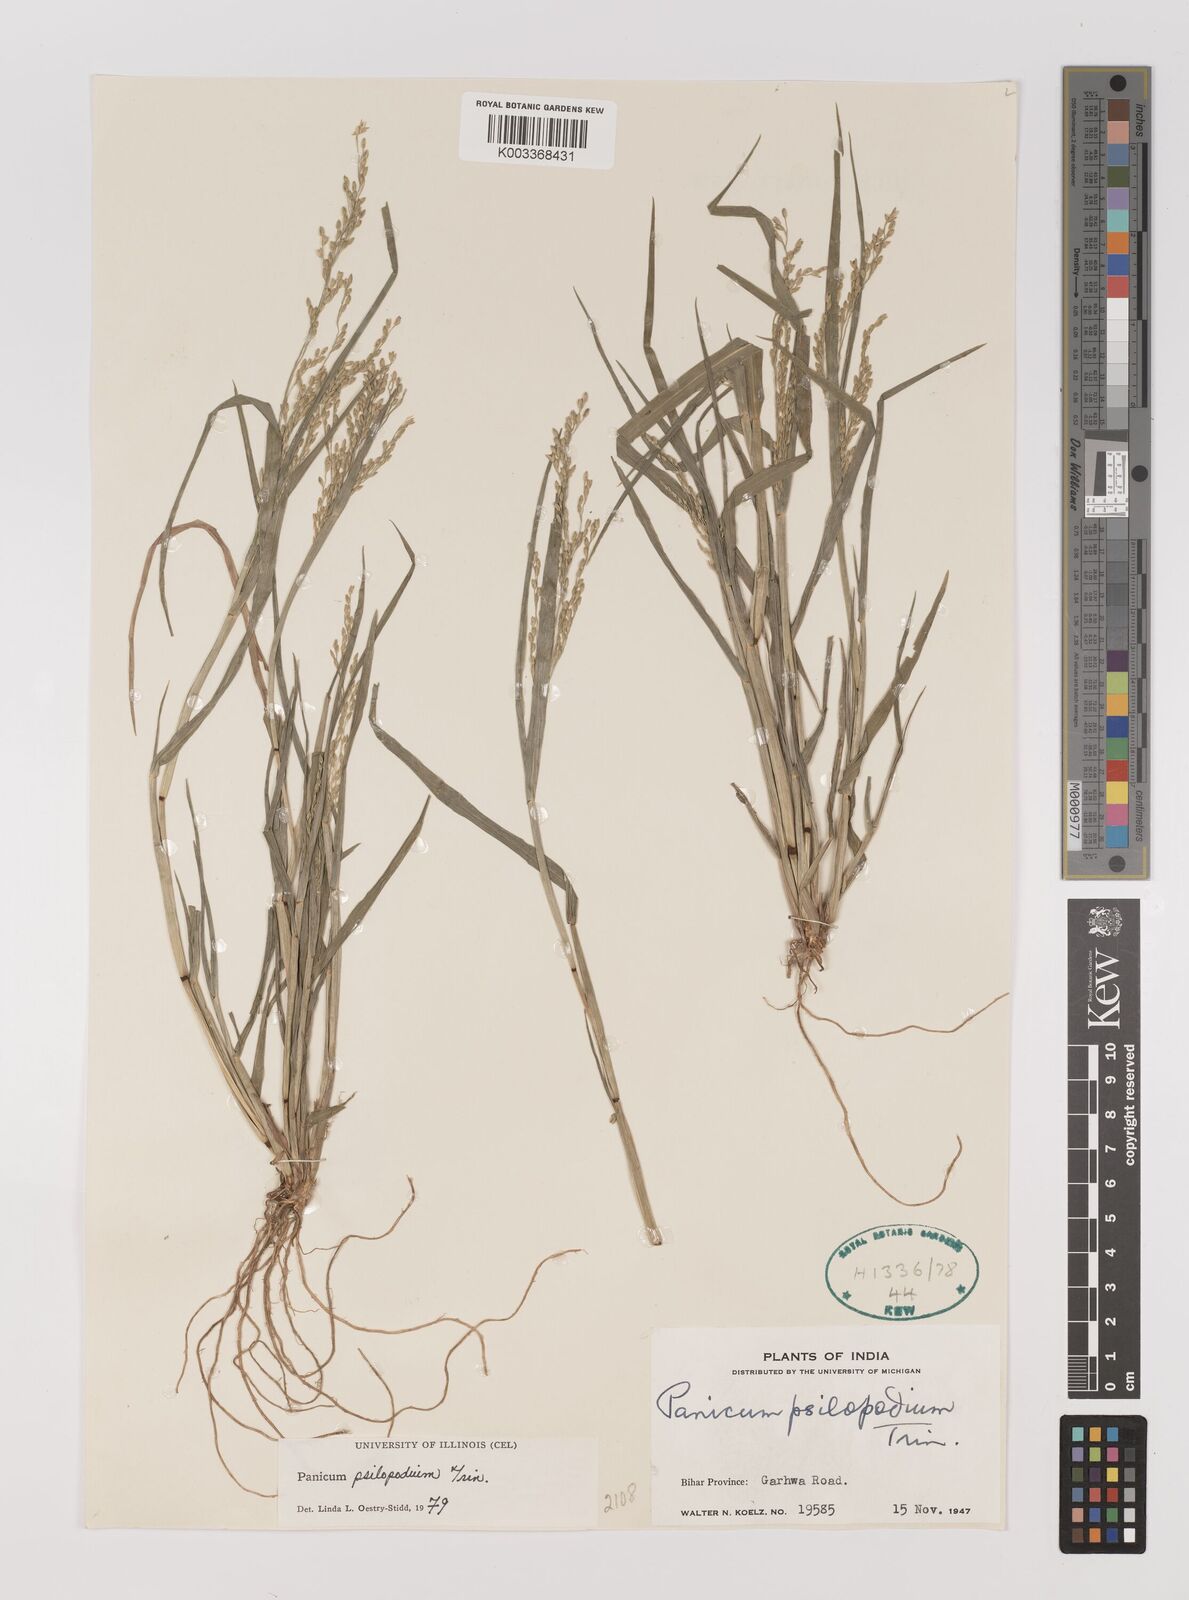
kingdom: Plantae
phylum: Tracheophyta
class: Liliopsida
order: Poales
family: Poaceae
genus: Panicum
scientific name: Panicum sumatrense
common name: Little millet
